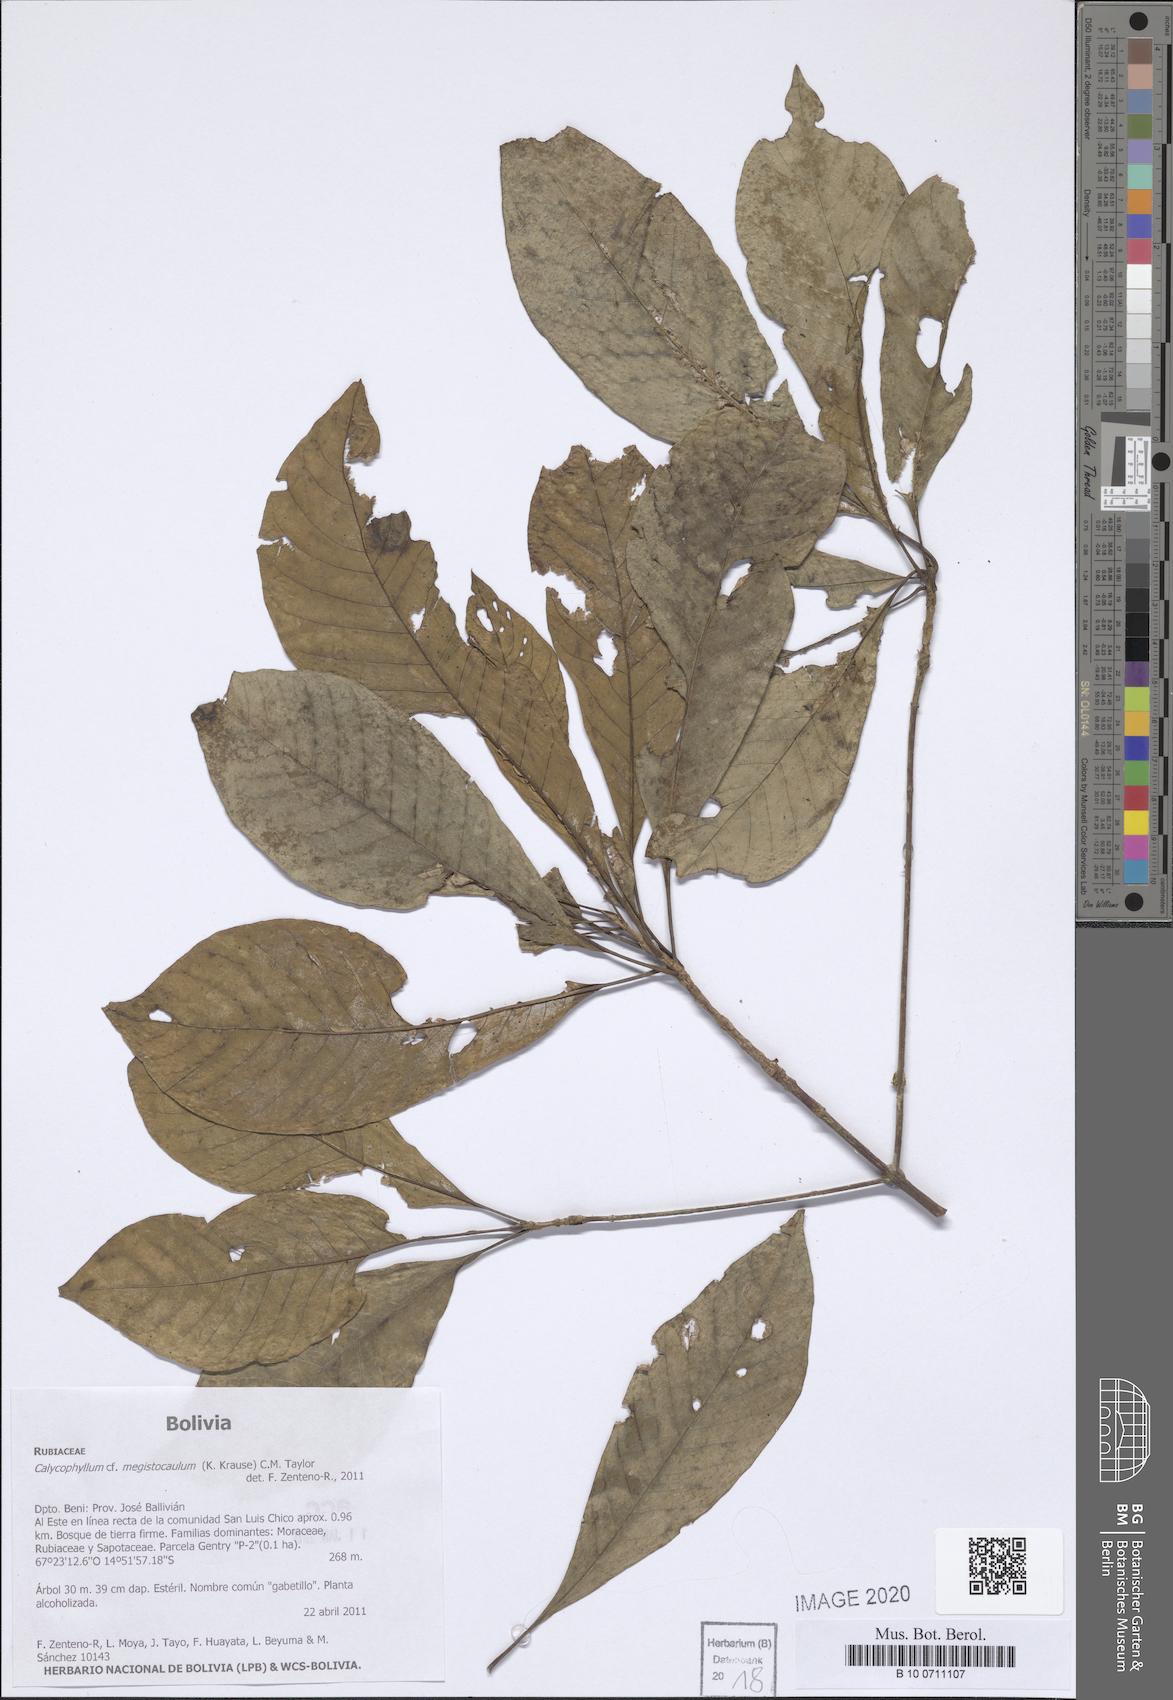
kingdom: Plantae
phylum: Tracheophyta
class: Magnoliopsida
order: Gentianales
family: Rubiaceae
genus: Calycophyllum
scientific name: Calycophyllum megistocaulum
